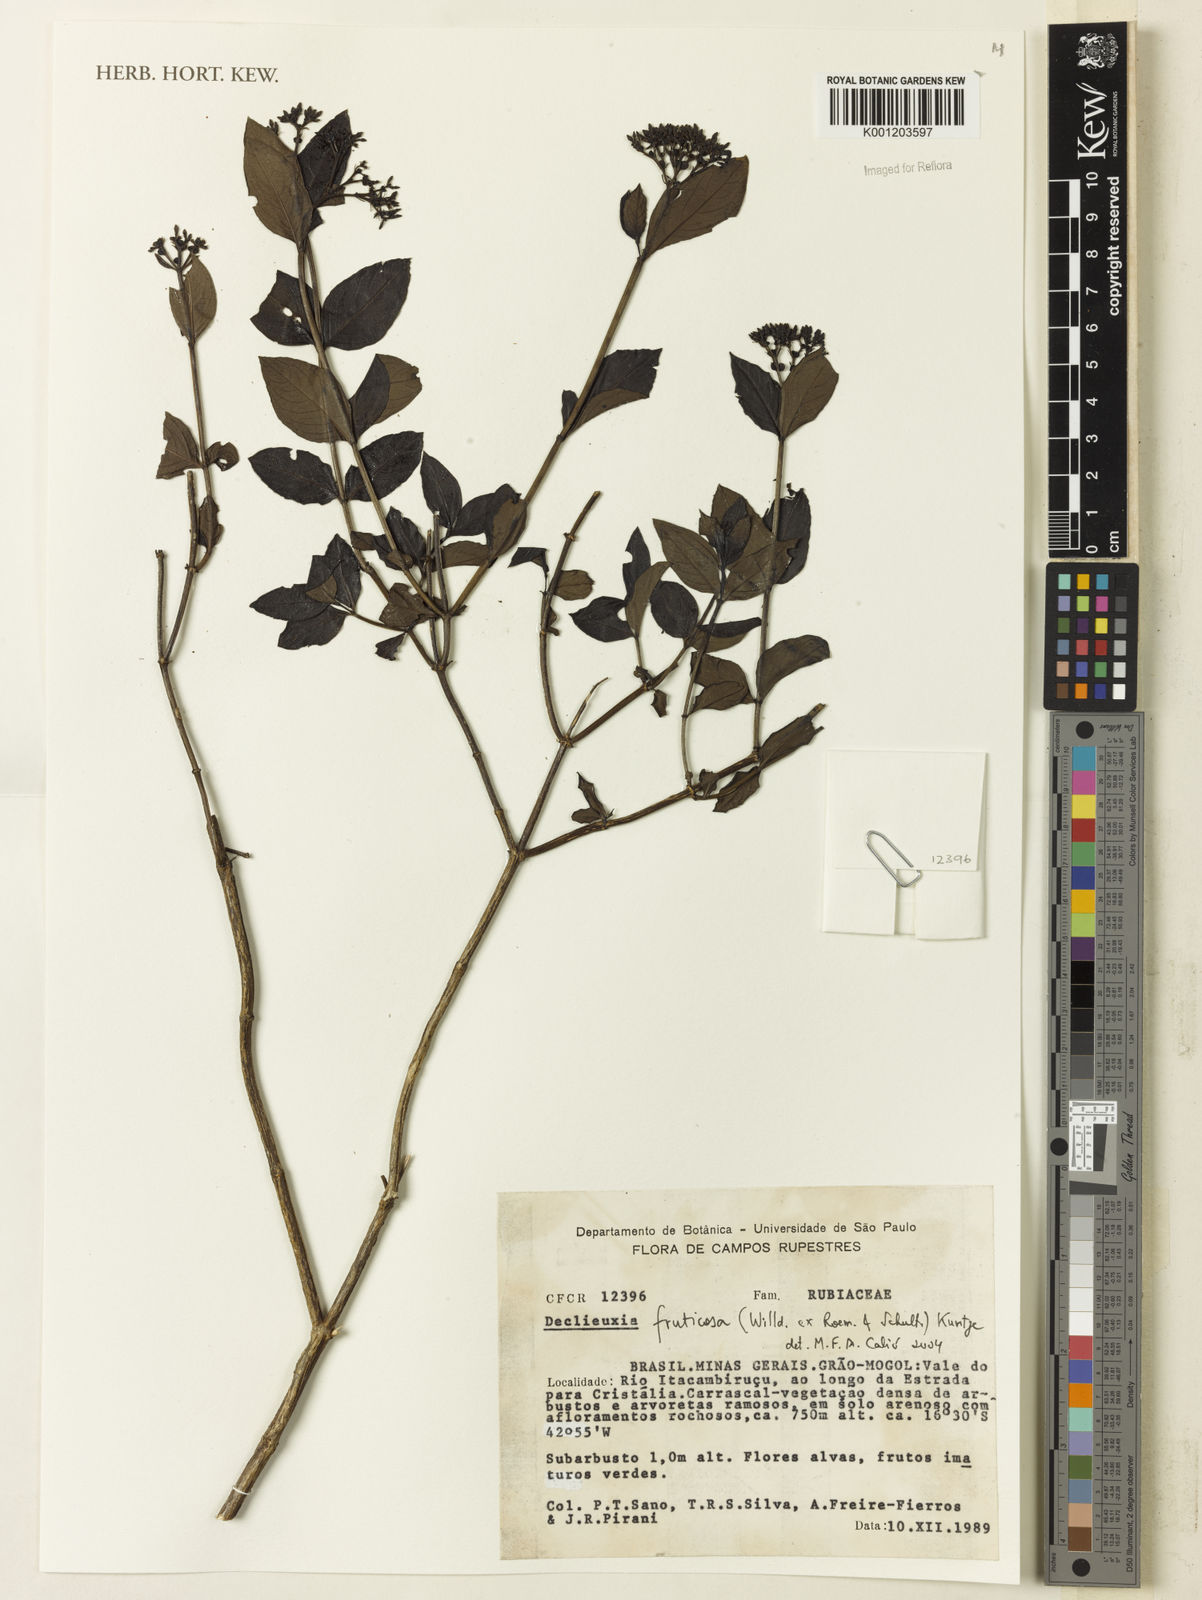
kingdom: Plantae
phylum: Tracheophyta
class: Magnoliopsida
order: Gentianales
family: Rubiaceae
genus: Declieuxia
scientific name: Declieuxia fruticosa
